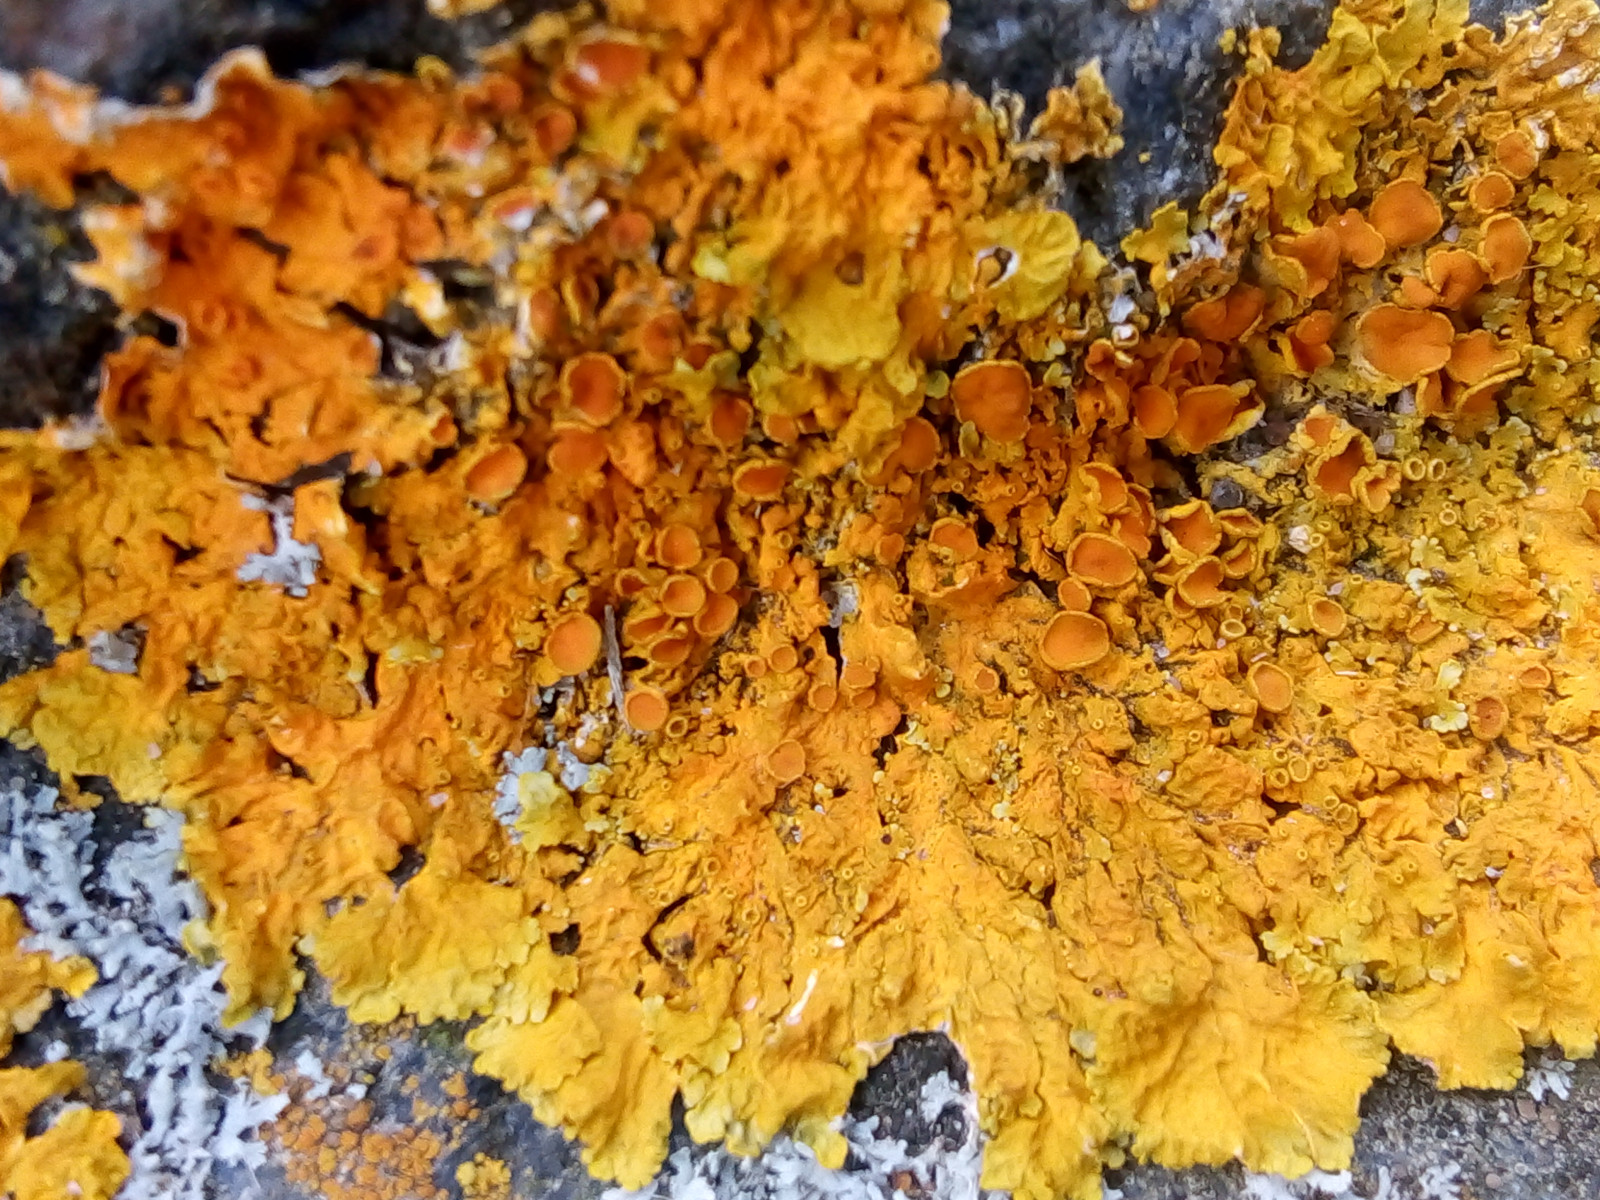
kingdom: Fungi
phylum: Ascomycota
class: Lecanoromycetes
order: Teloschistales
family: Teloschistaceae
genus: Xanthoria
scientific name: Xanthoria parietina
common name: almindelig væggelav
